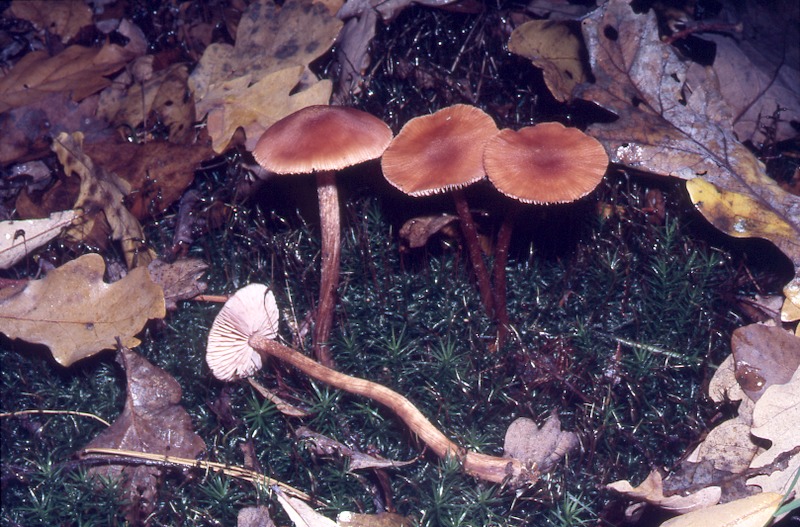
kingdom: Fungi
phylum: Basidiomycota
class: Agaricomycetes
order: Agaricales
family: Hydnangiaceae
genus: Laccaria
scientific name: Laccaria proxima
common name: Scurfy deceiver
